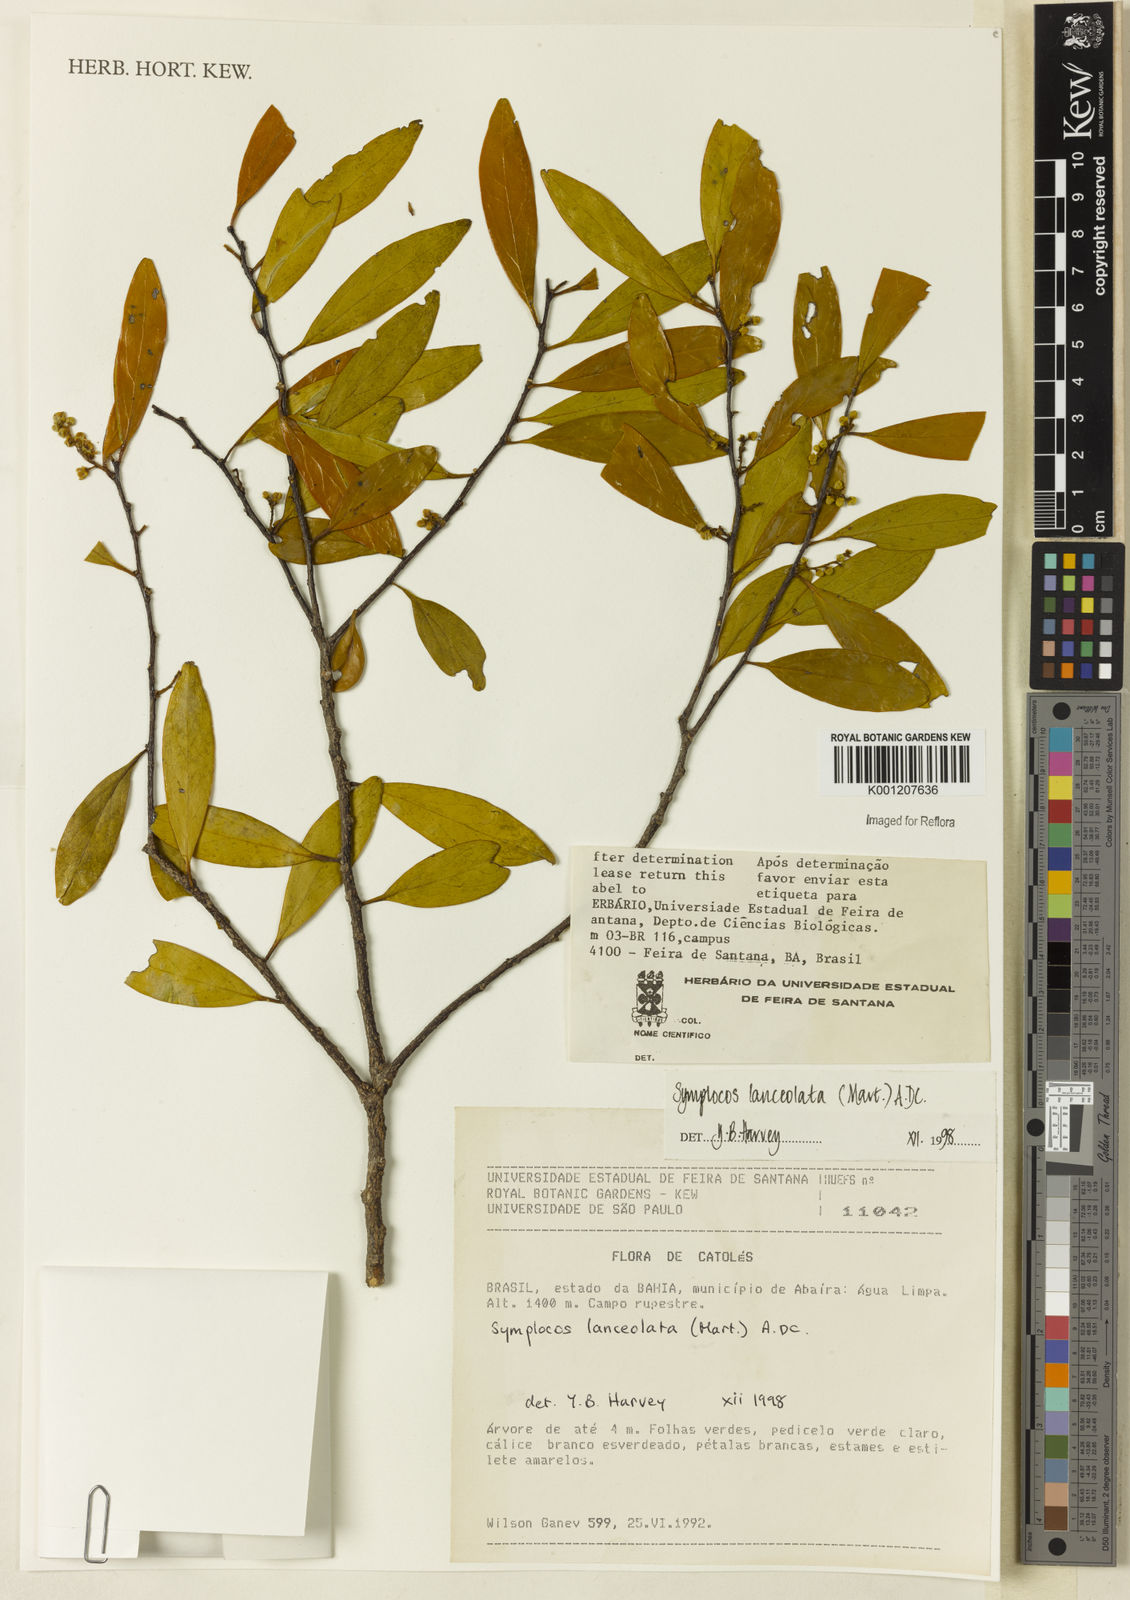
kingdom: Plantae
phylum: Tracheophyta
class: Magnoliopsida
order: Ericales
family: Symplocaceae
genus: Symplocos
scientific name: Symplocos oblongifolia
